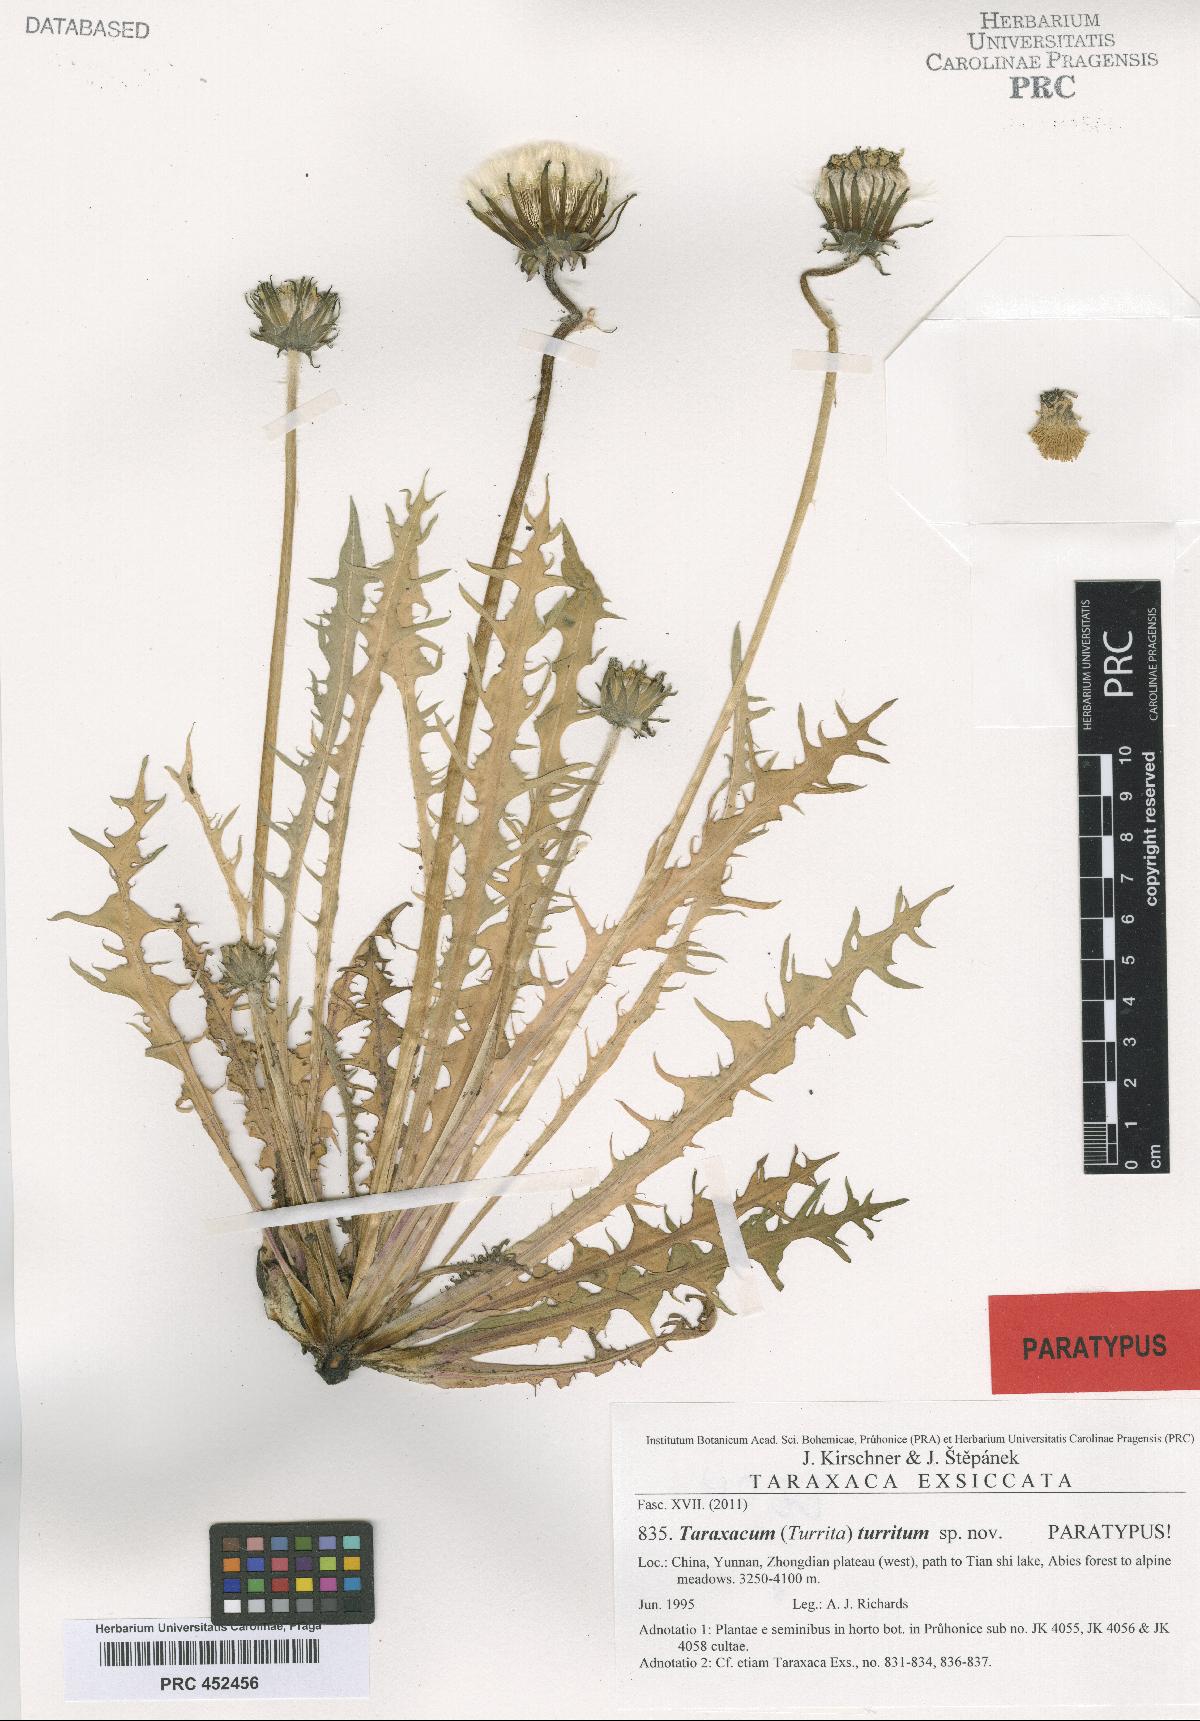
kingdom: Plantae
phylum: Tracheophyta
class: Magnoliopsida
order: Asterales
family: Asteraceae
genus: Taraxacum
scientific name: Taraxacum turritum
